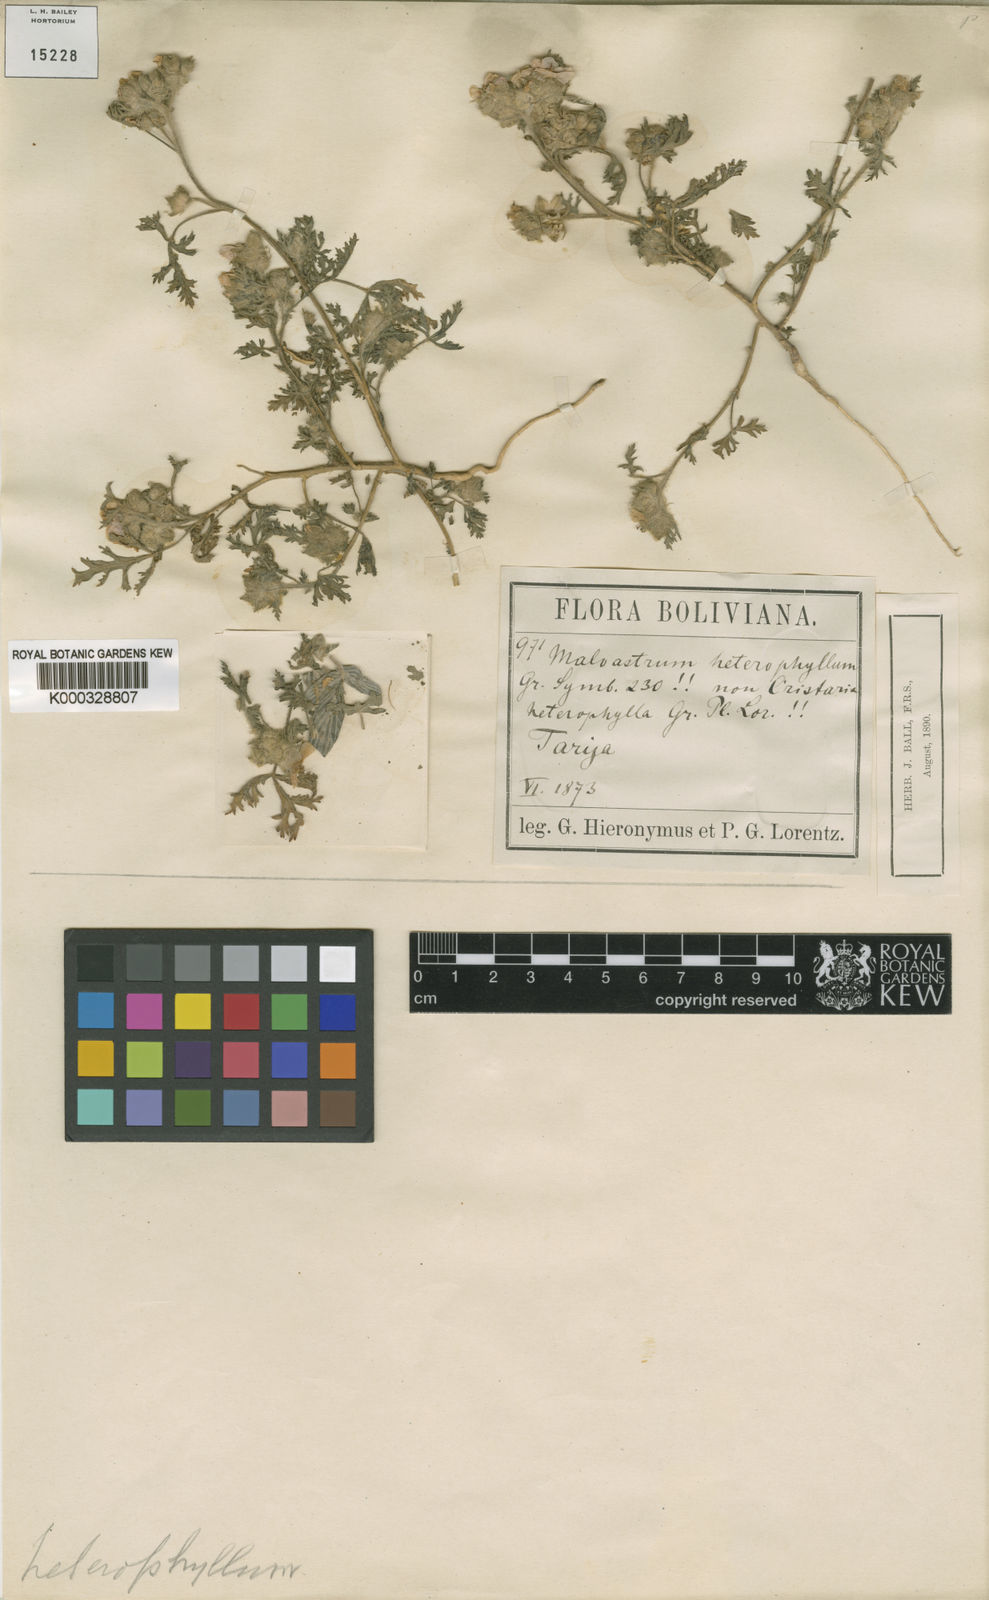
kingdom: Plantae
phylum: Tracheophyta
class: Magnoliopsida
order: Malvales
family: Malvaceae
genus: Tarasa
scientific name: Tarasa heterophylla
